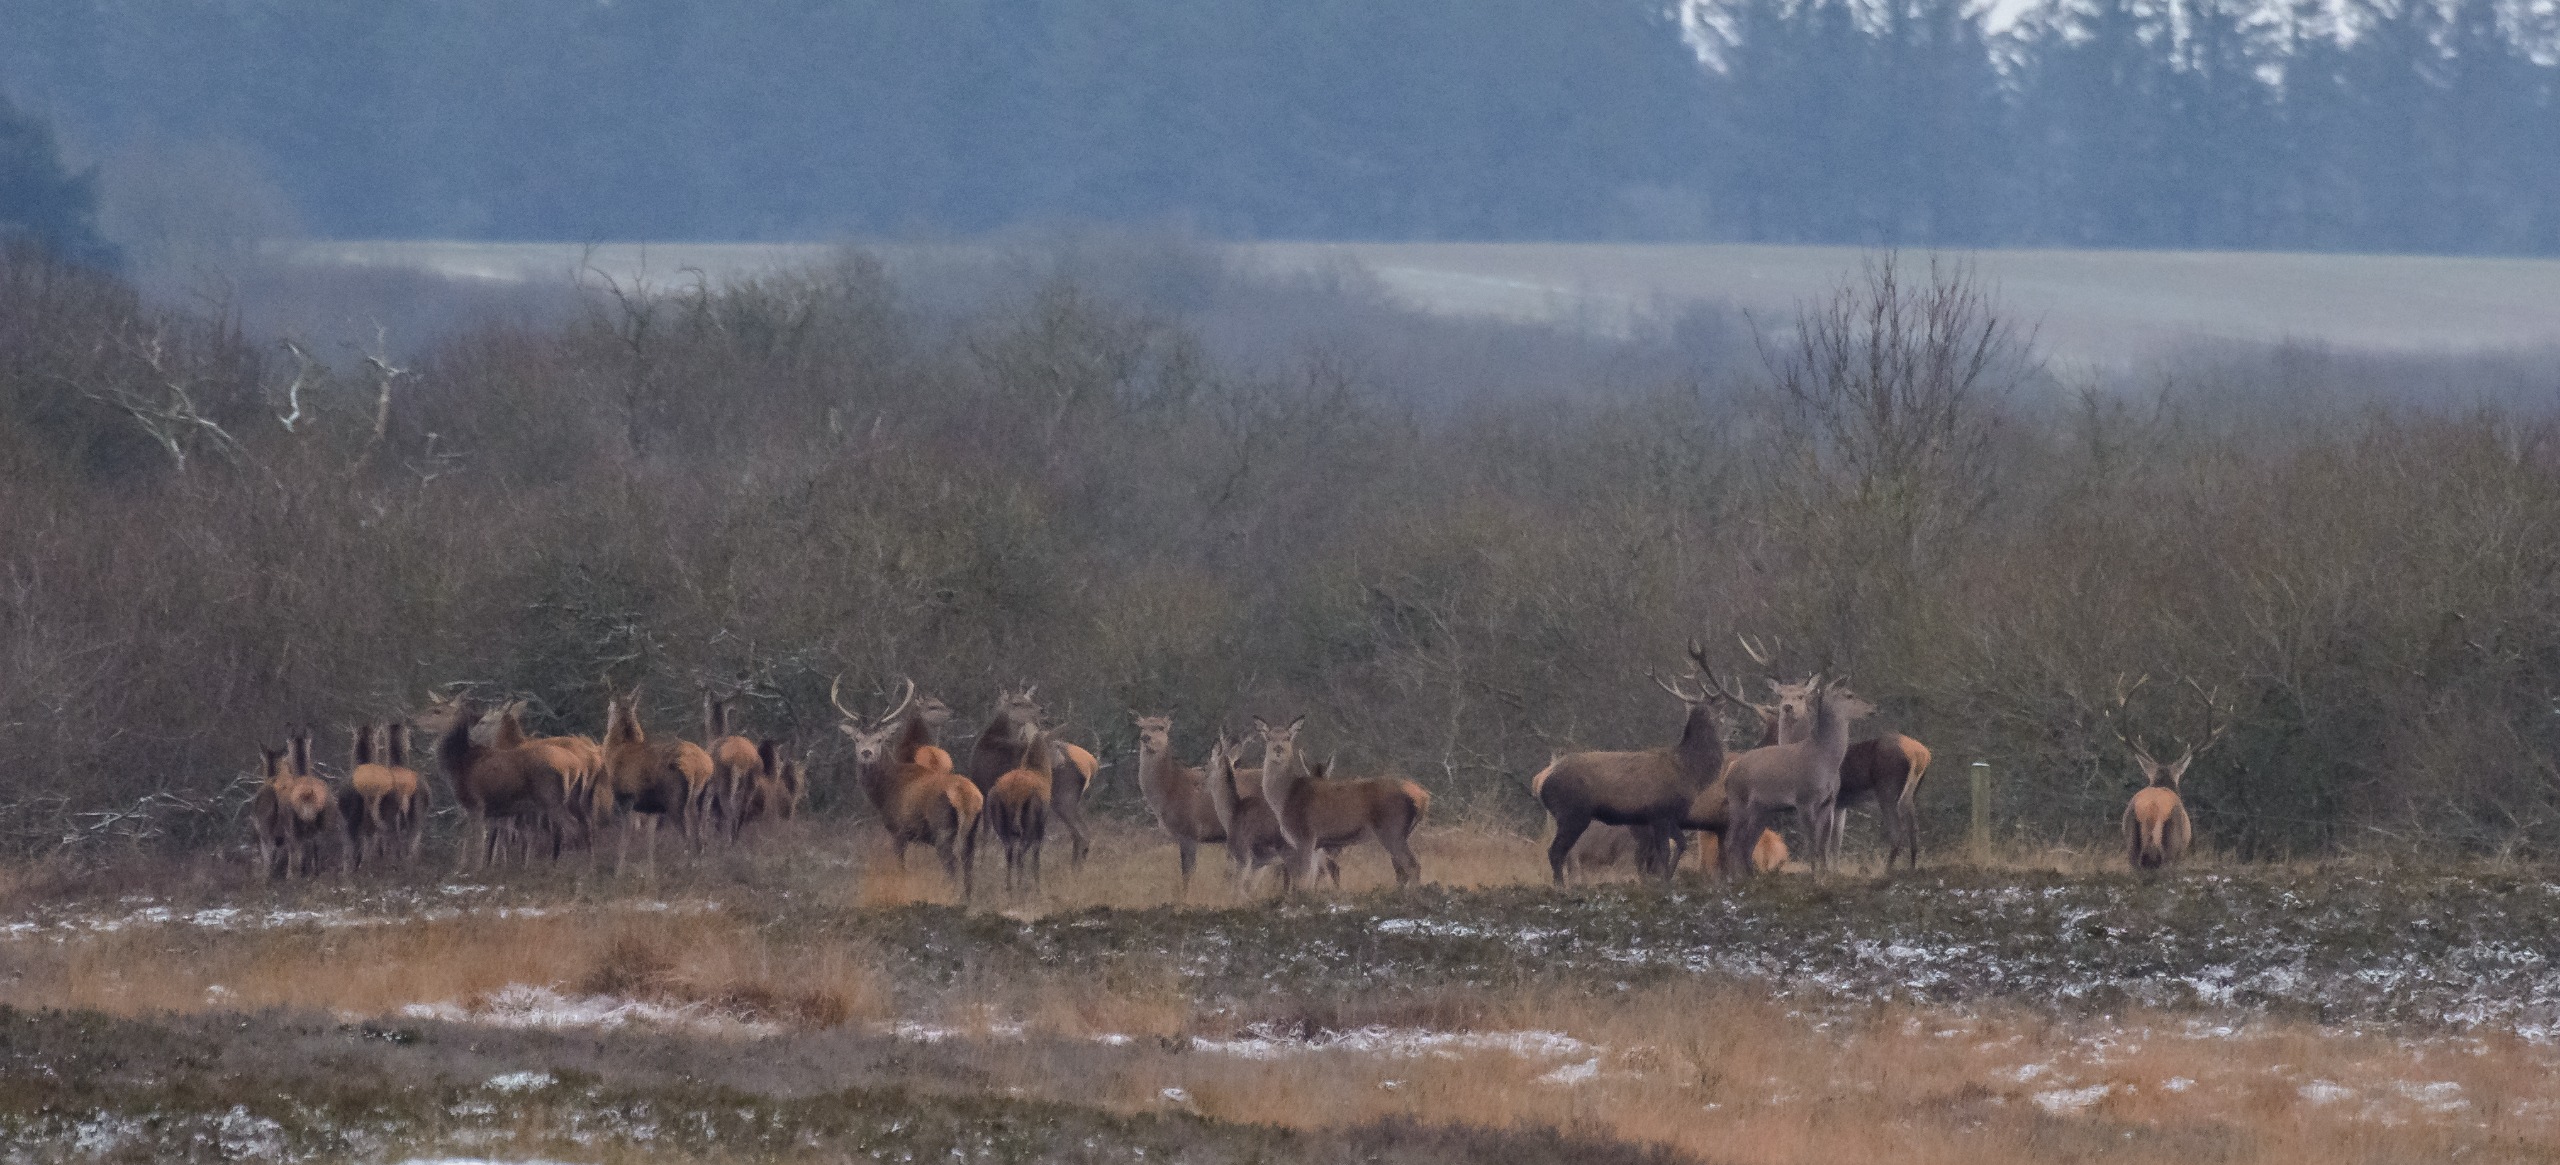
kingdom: Animalia
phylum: Chordata
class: Mammalia
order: Artiodactyla
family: Cervidae
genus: Cervus
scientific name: Cervus elaphus
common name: Krondyr
